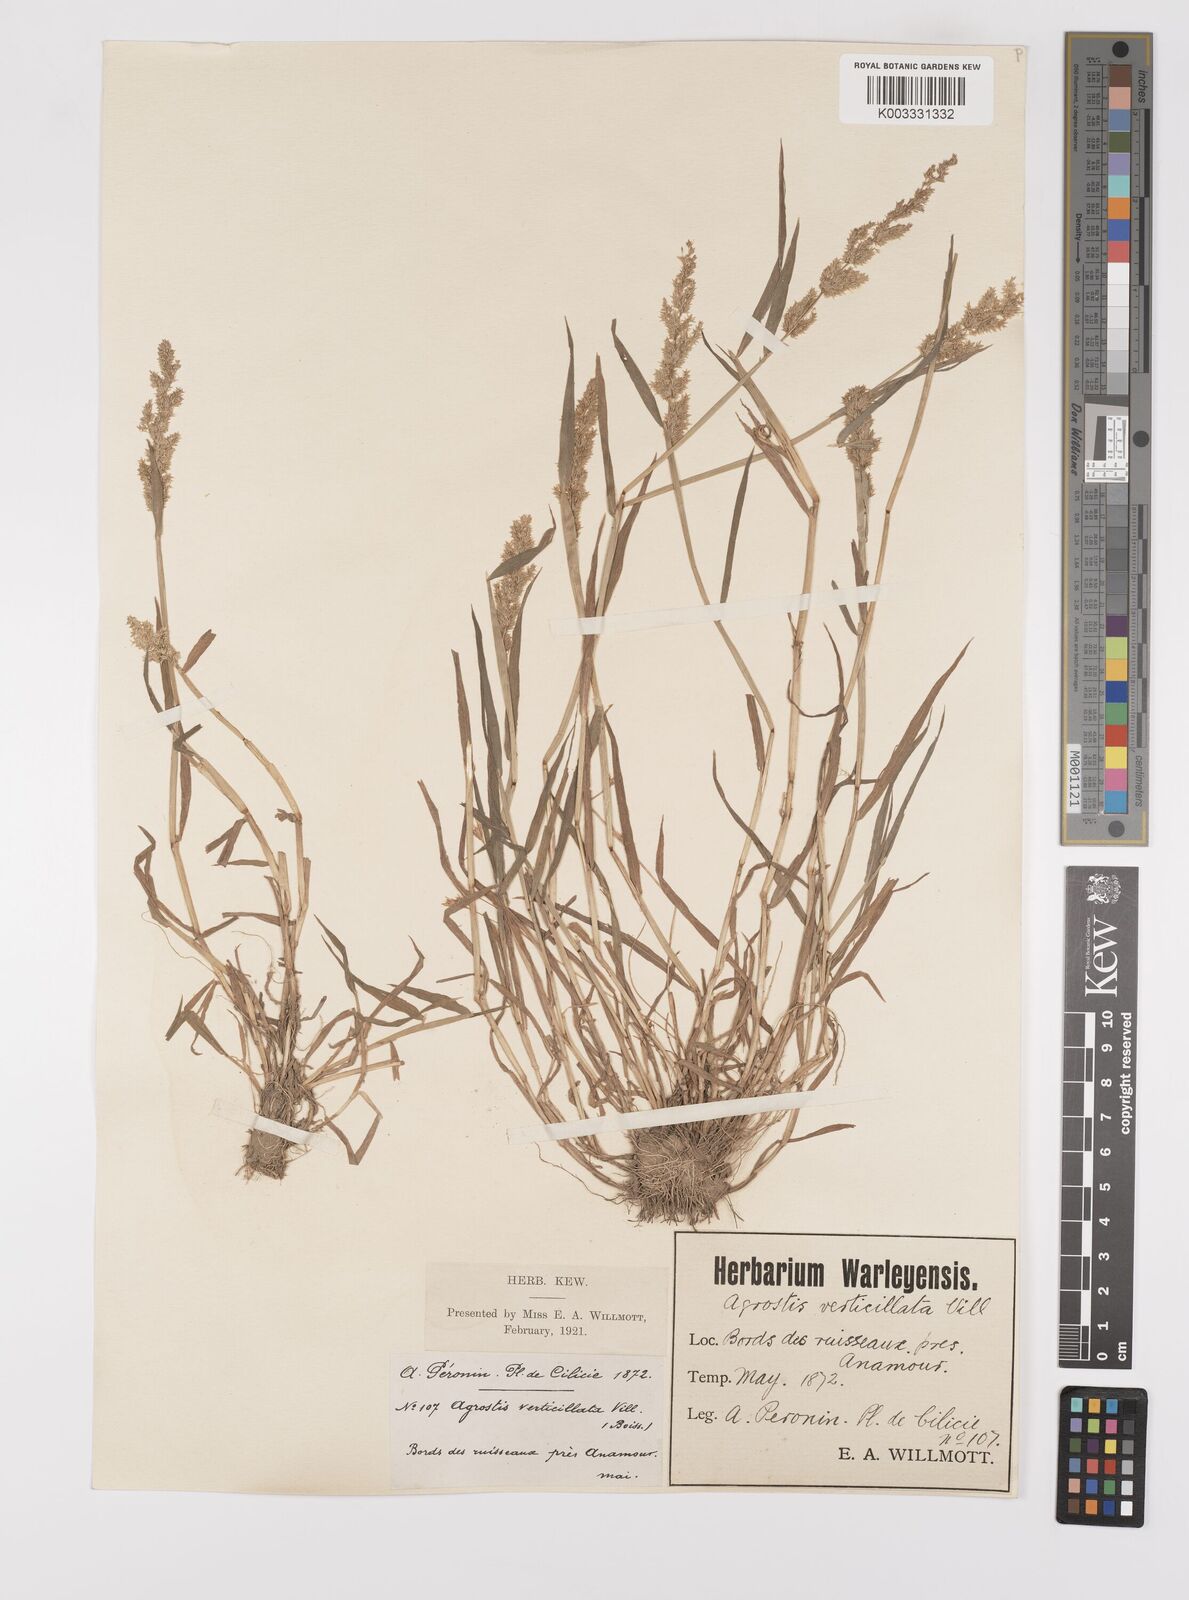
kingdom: Plantae
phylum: Tracheophyta
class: Liliopsida
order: Poales
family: Poaceae
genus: Polypogon
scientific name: Polypogon viridis
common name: Water bent
